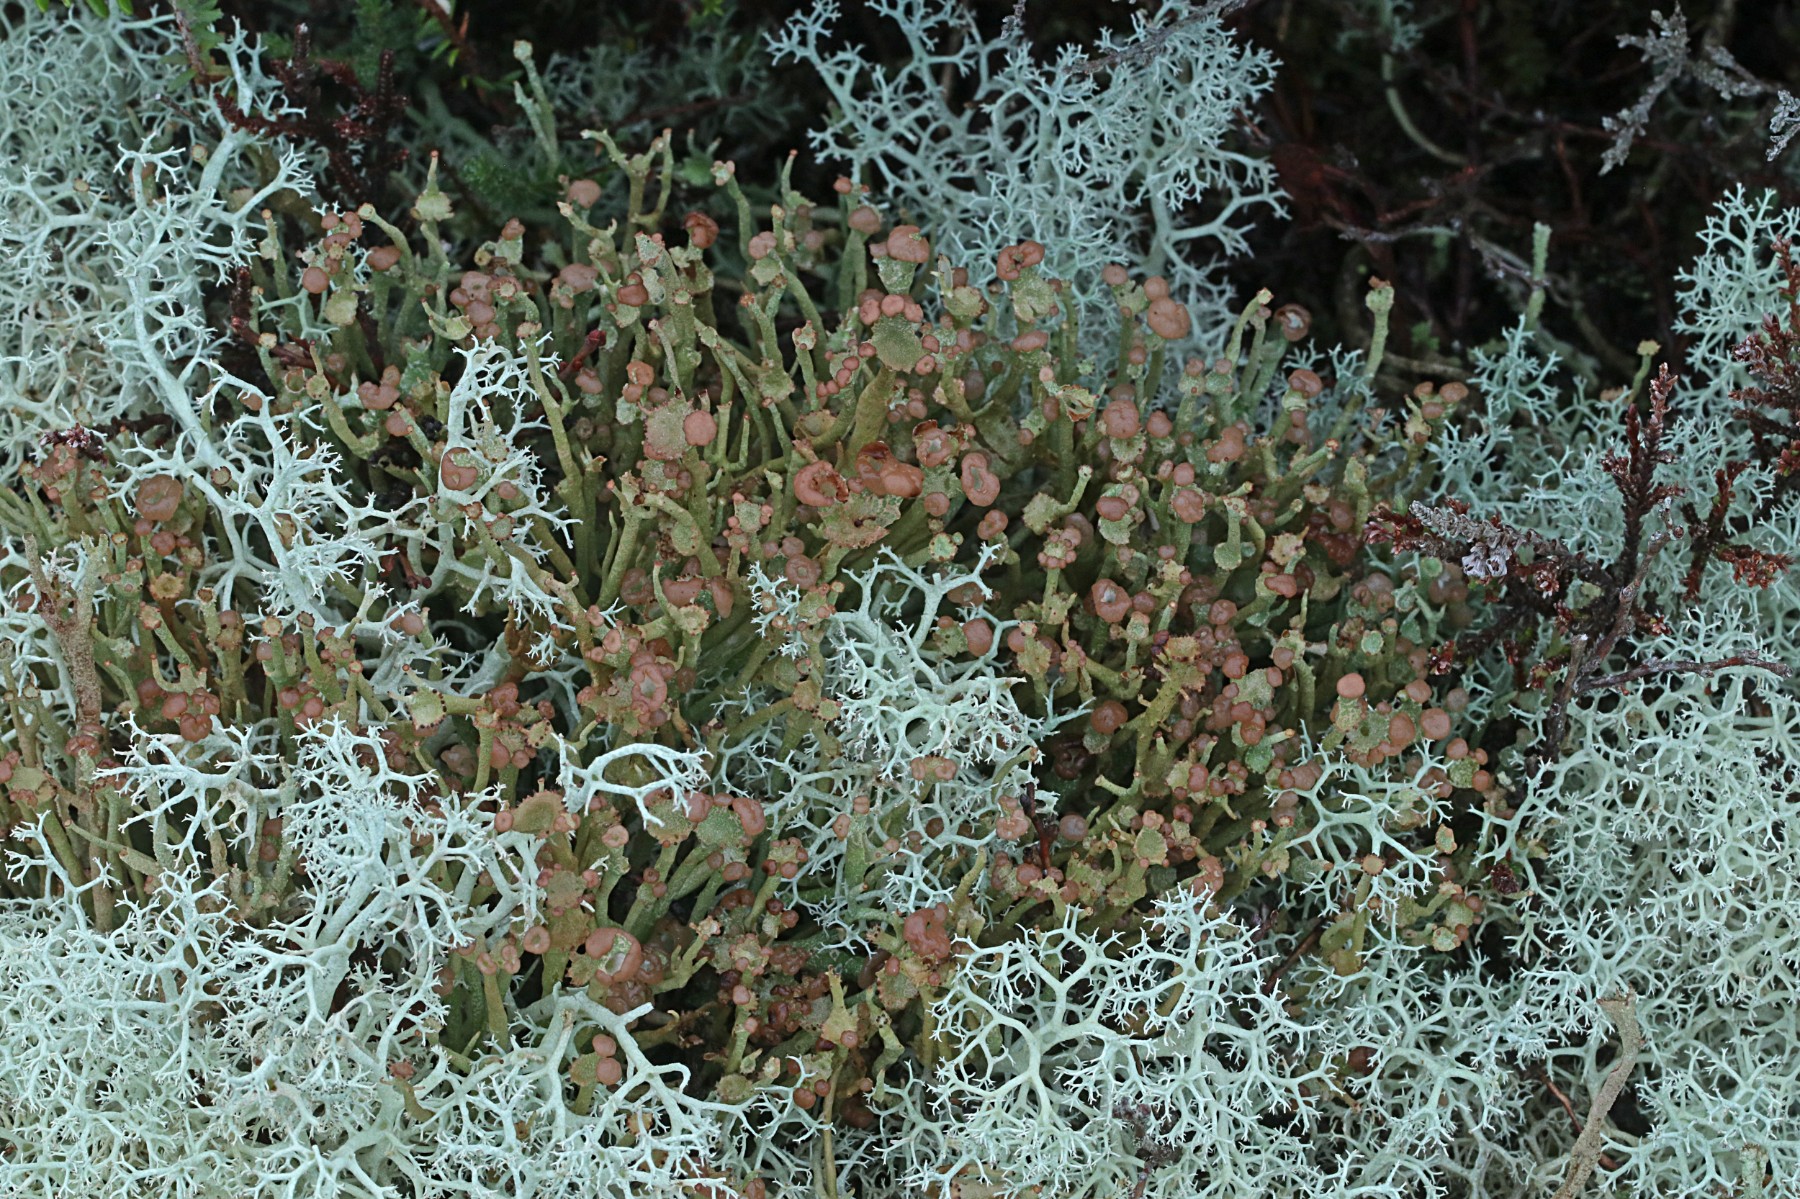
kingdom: Fungi
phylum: Ascomycota
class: Lecanoromycetes
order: Lecanorales
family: Cladoniaceae
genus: Cladonia
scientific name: Cladonia ramulosa
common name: kliddet bægerlav
